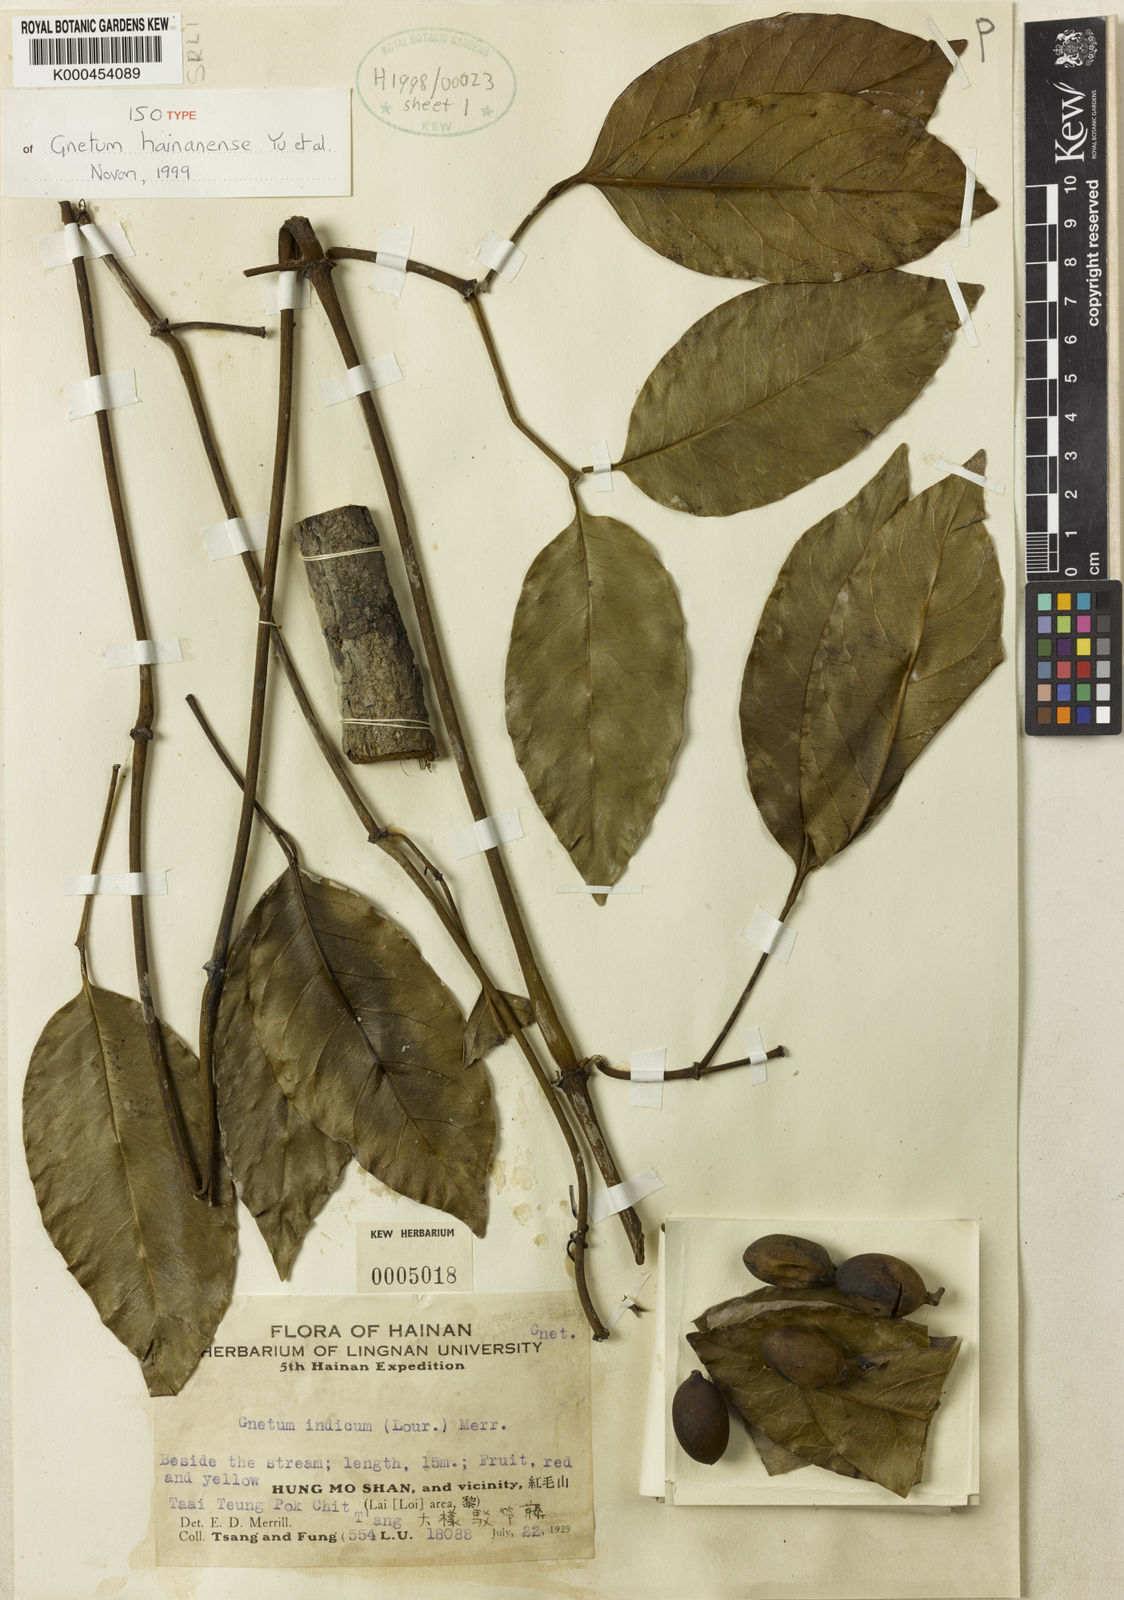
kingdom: Plantae
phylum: Tracheophyta
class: Gnetopsida
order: Gnetales
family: Gnetaceae
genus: Gnetum
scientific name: Gnetum hainanense
